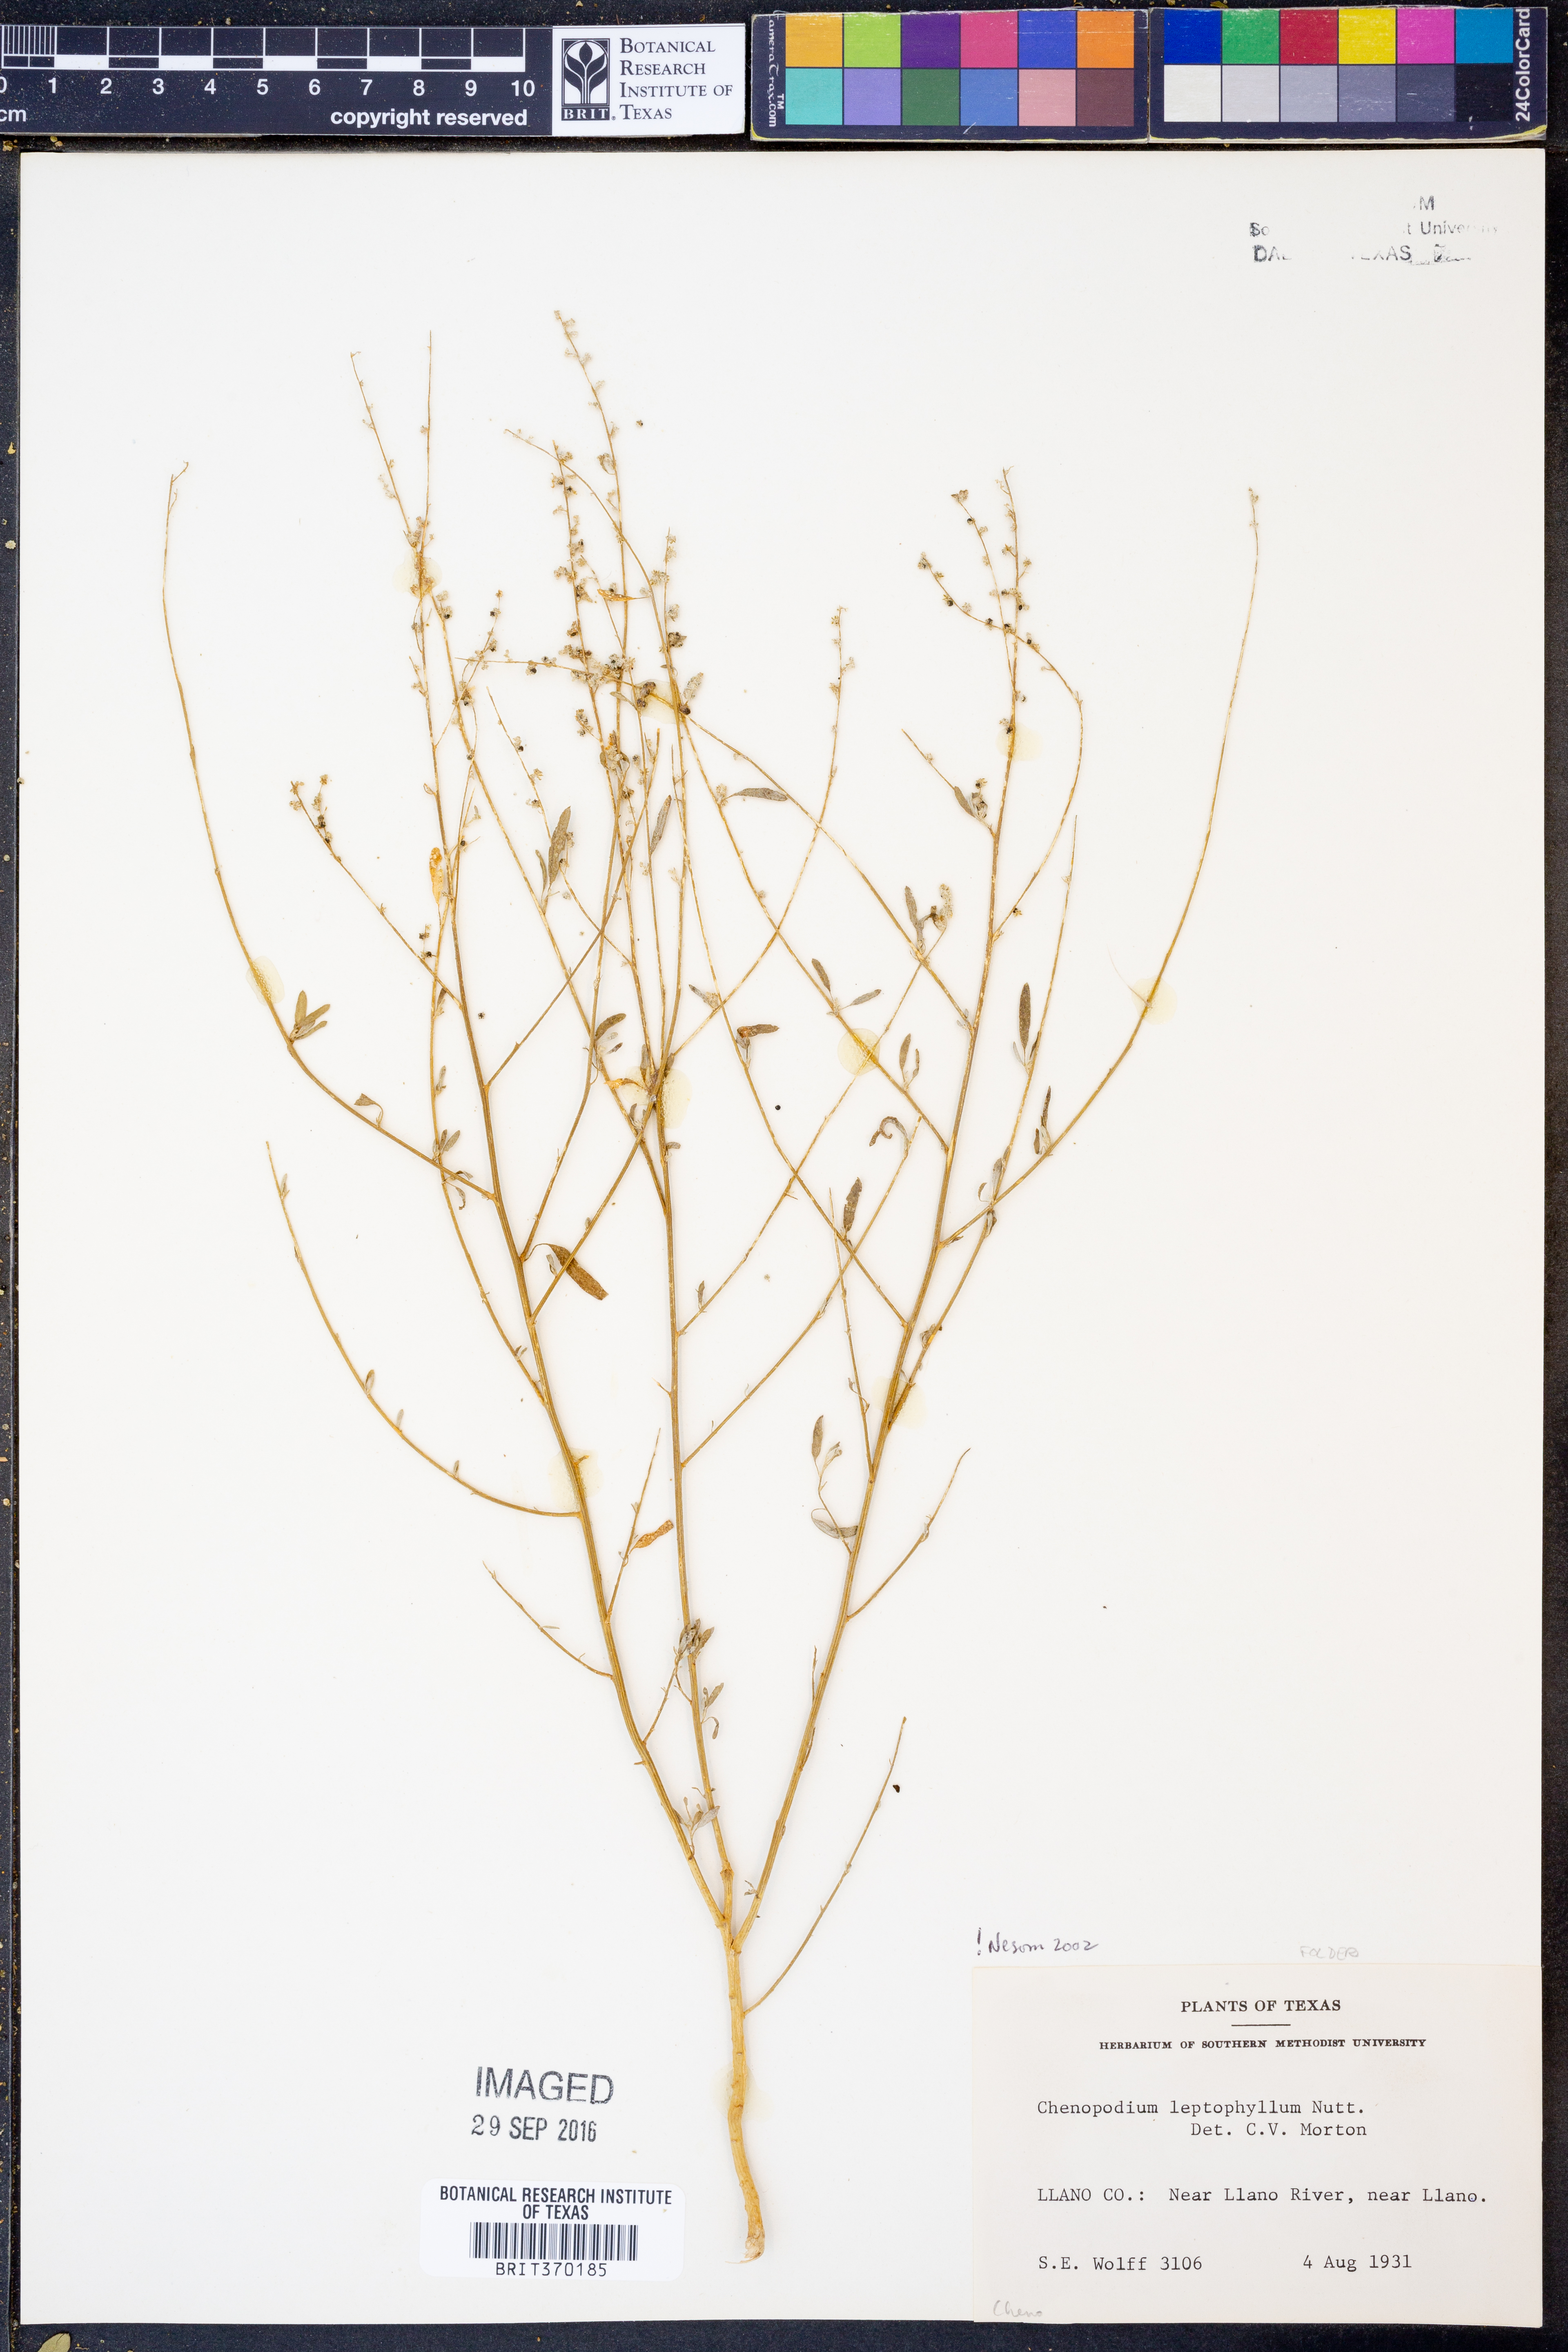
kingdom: Plantae
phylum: Tracheophyta
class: Magnoliopsida
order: Caryophyllales
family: Amaranthaceae
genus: Chenopodium
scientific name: Chenopodium leptophyllum
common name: Narrow-leaf goosefoot
